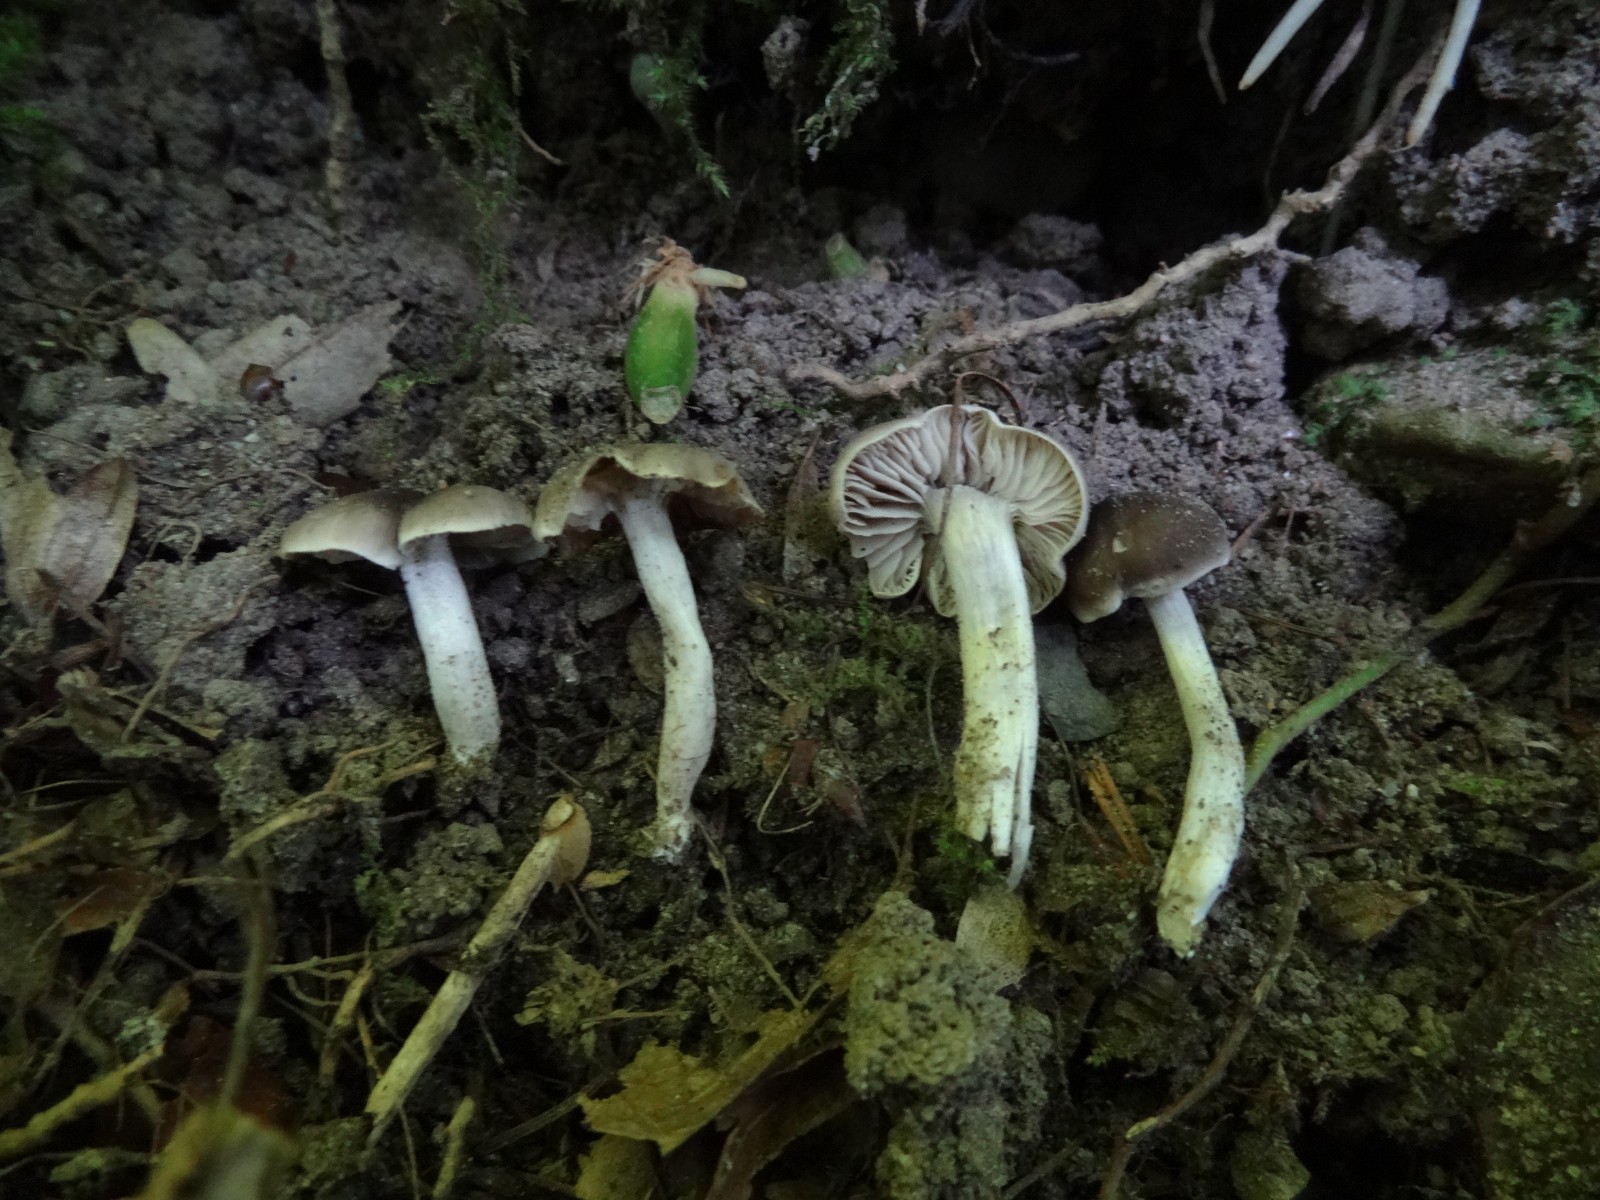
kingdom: Fungi
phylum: Basidiomycota
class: Agaricomycetes
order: Agaricales
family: Tricholomataceae
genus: Dermoloma
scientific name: Dermoloma pseudocuneifolium
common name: mark-nonnehat
